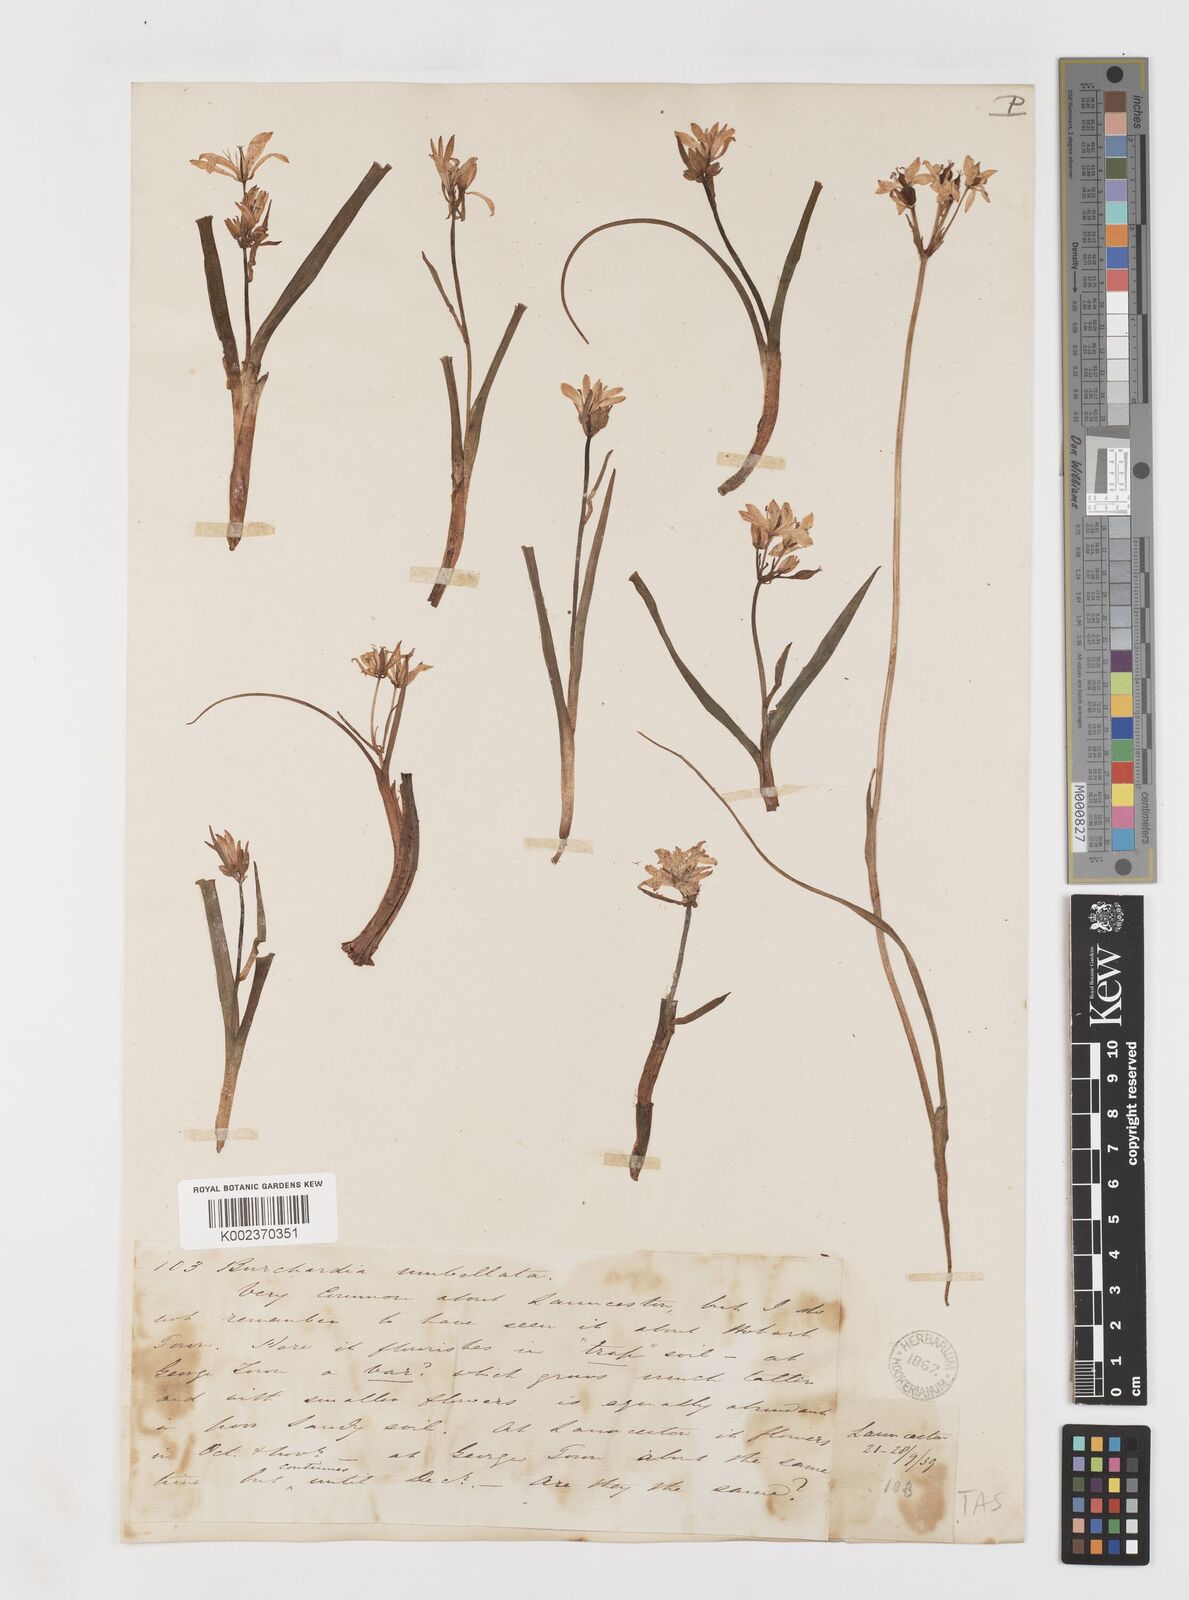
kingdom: Plantae
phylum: Tracheophyta
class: Liliopsida
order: Liliales
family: Colchicaceae
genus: Burchardia
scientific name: Burchardia umbellata
